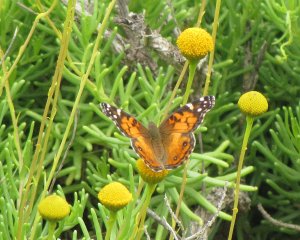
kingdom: Animalia
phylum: Arthropoda
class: Insecta
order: Lepidoptera
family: Nymphalidae
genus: Vanessa
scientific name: Vanessa virginiensis
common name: American Lady
